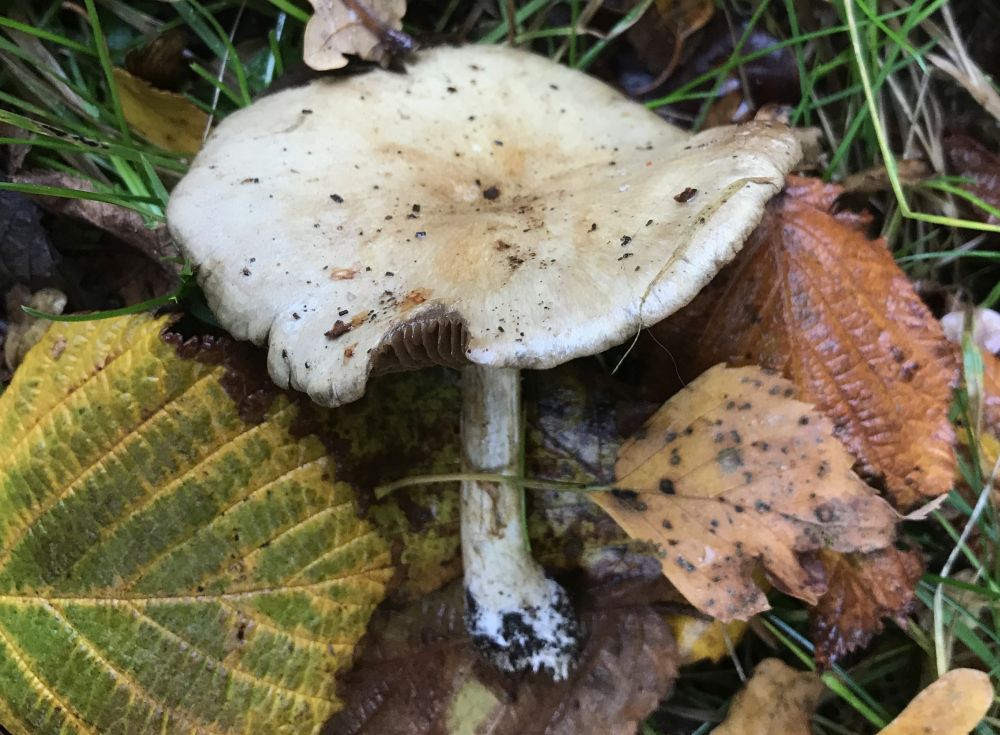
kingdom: Fungi
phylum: Basidiomycota
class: Agaricomycetes
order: Agaricales
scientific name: Agaricales
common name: champignonordenen
